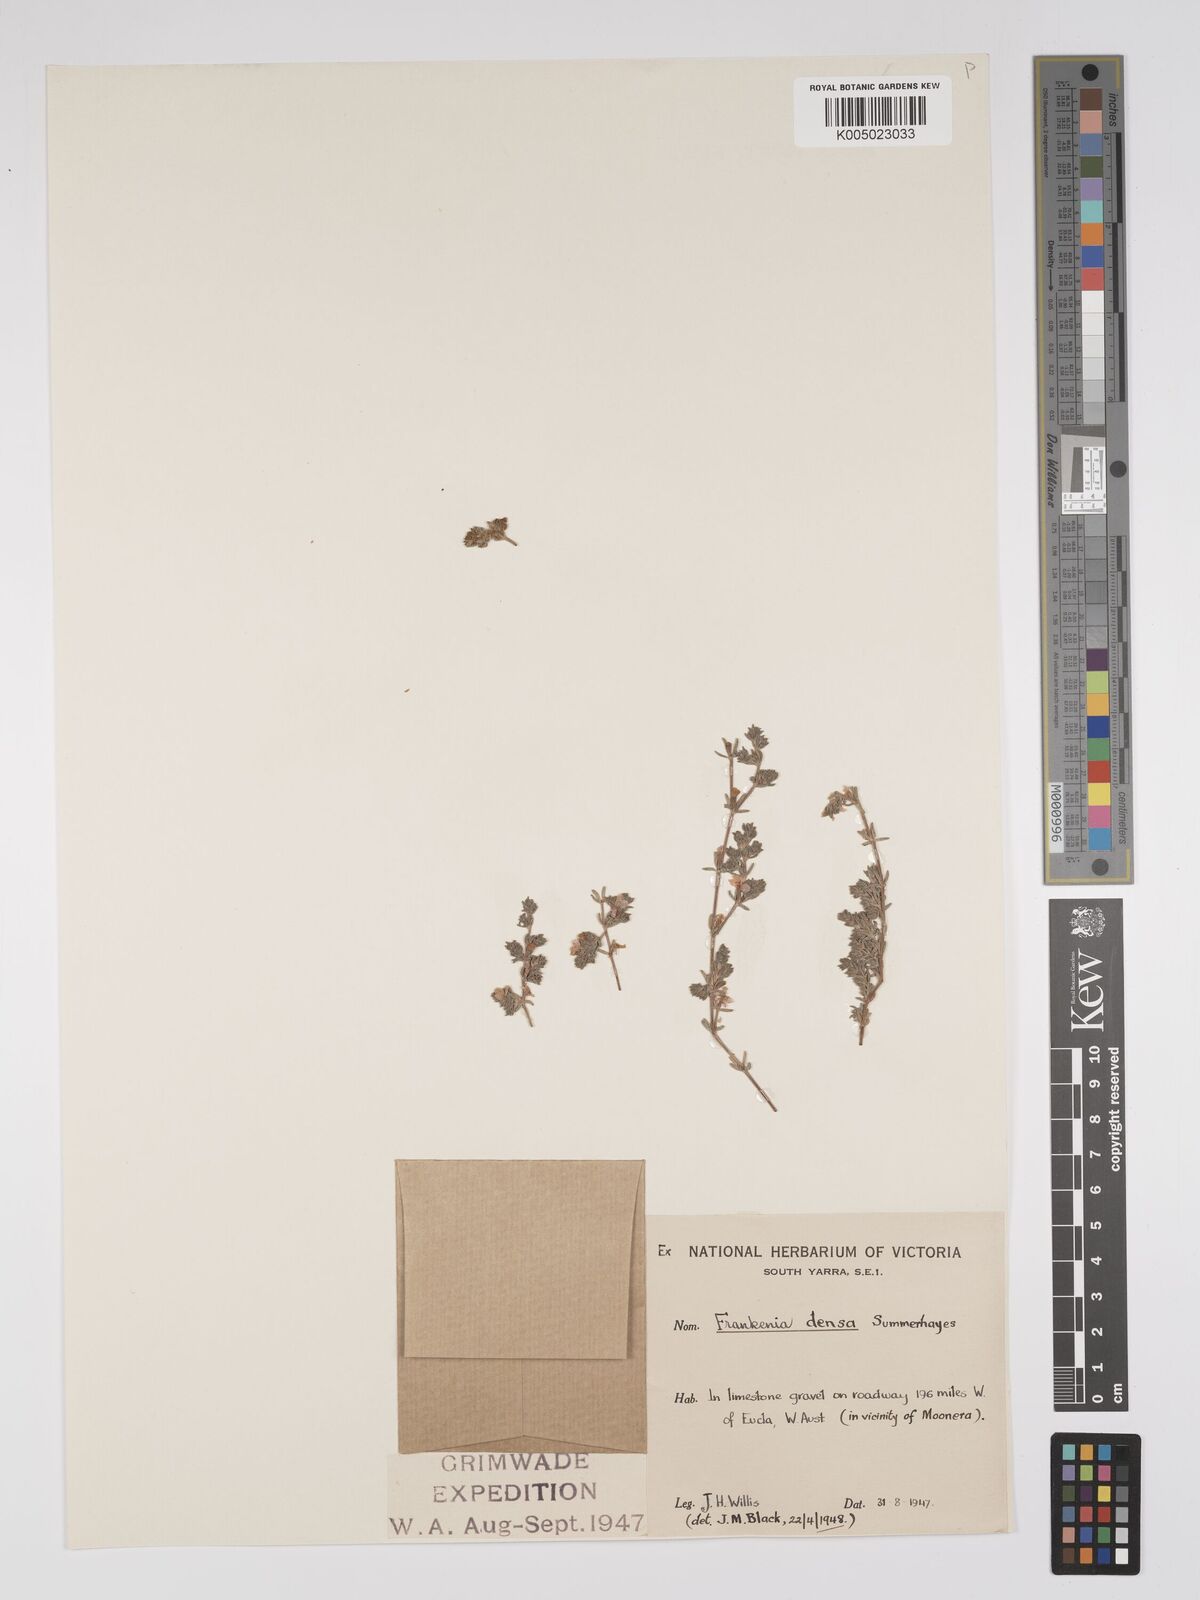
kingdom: Plantae
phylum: Tracheophyta
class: Magnoliopsida
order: Caryophyllales
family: Frankeniaceae
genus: Frankenia
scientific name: Frankenia
